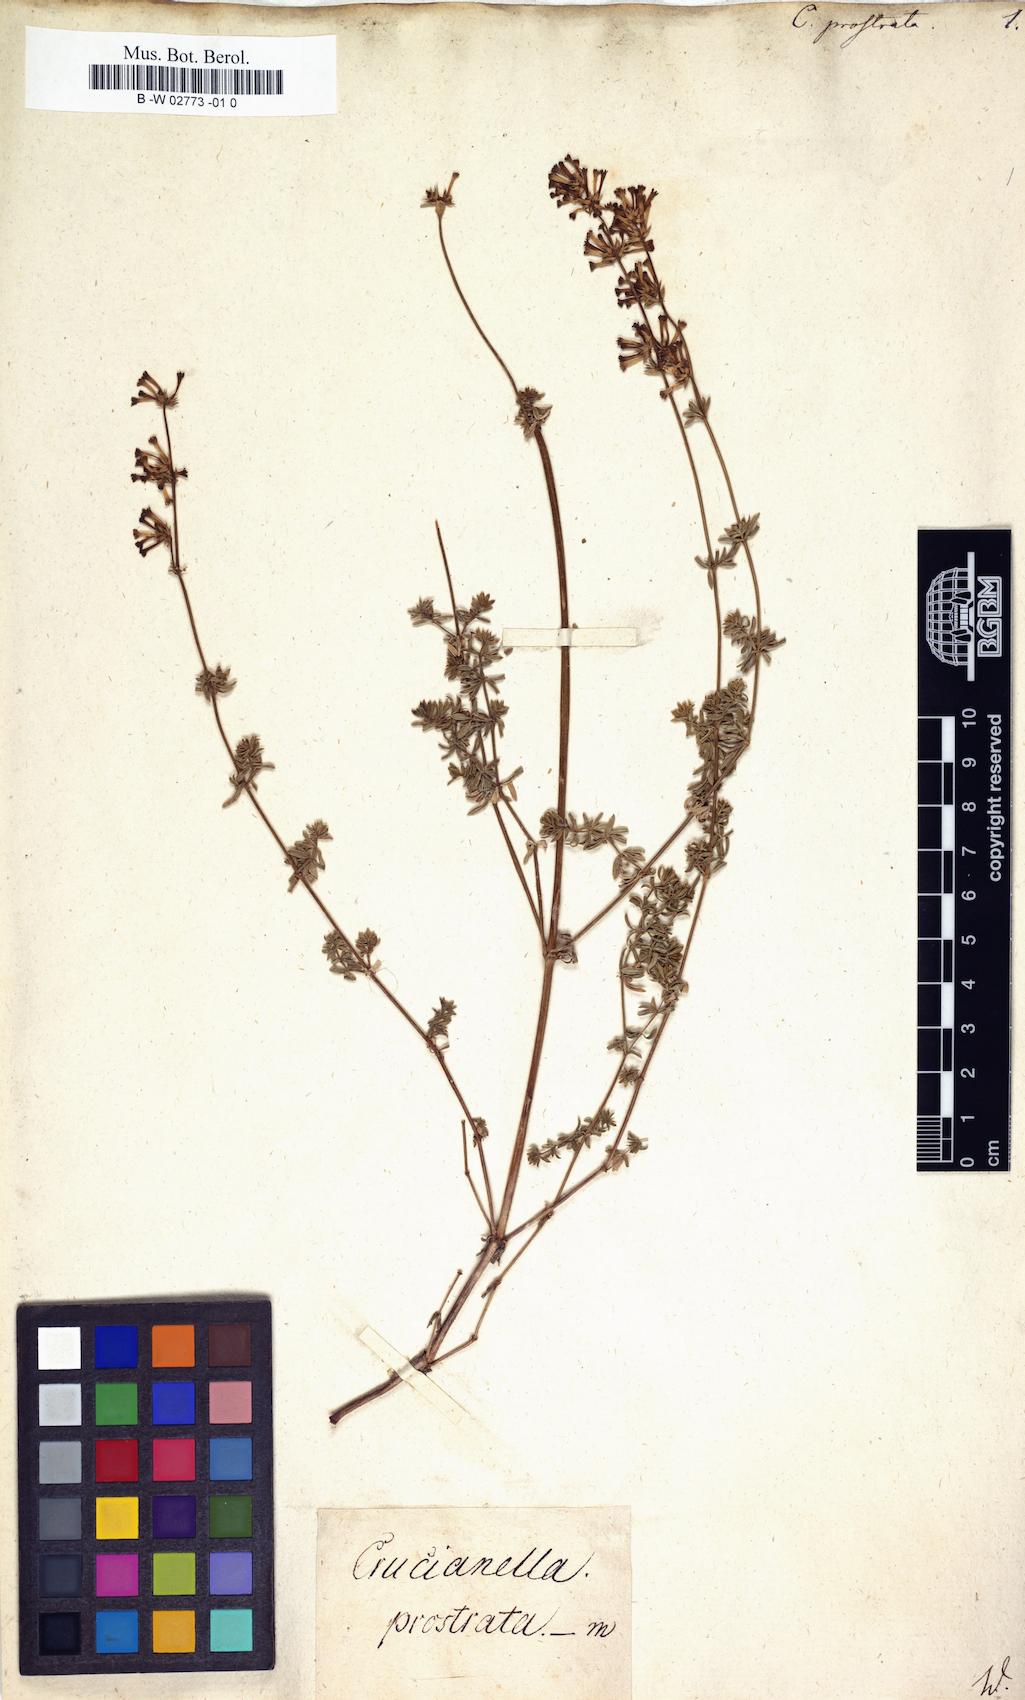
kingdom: Plantae
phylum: Tracheophyta
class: Magnoliopsida
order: Gentianales
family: Rubiaceae
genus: Asperula
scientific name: Asperula prostrata
